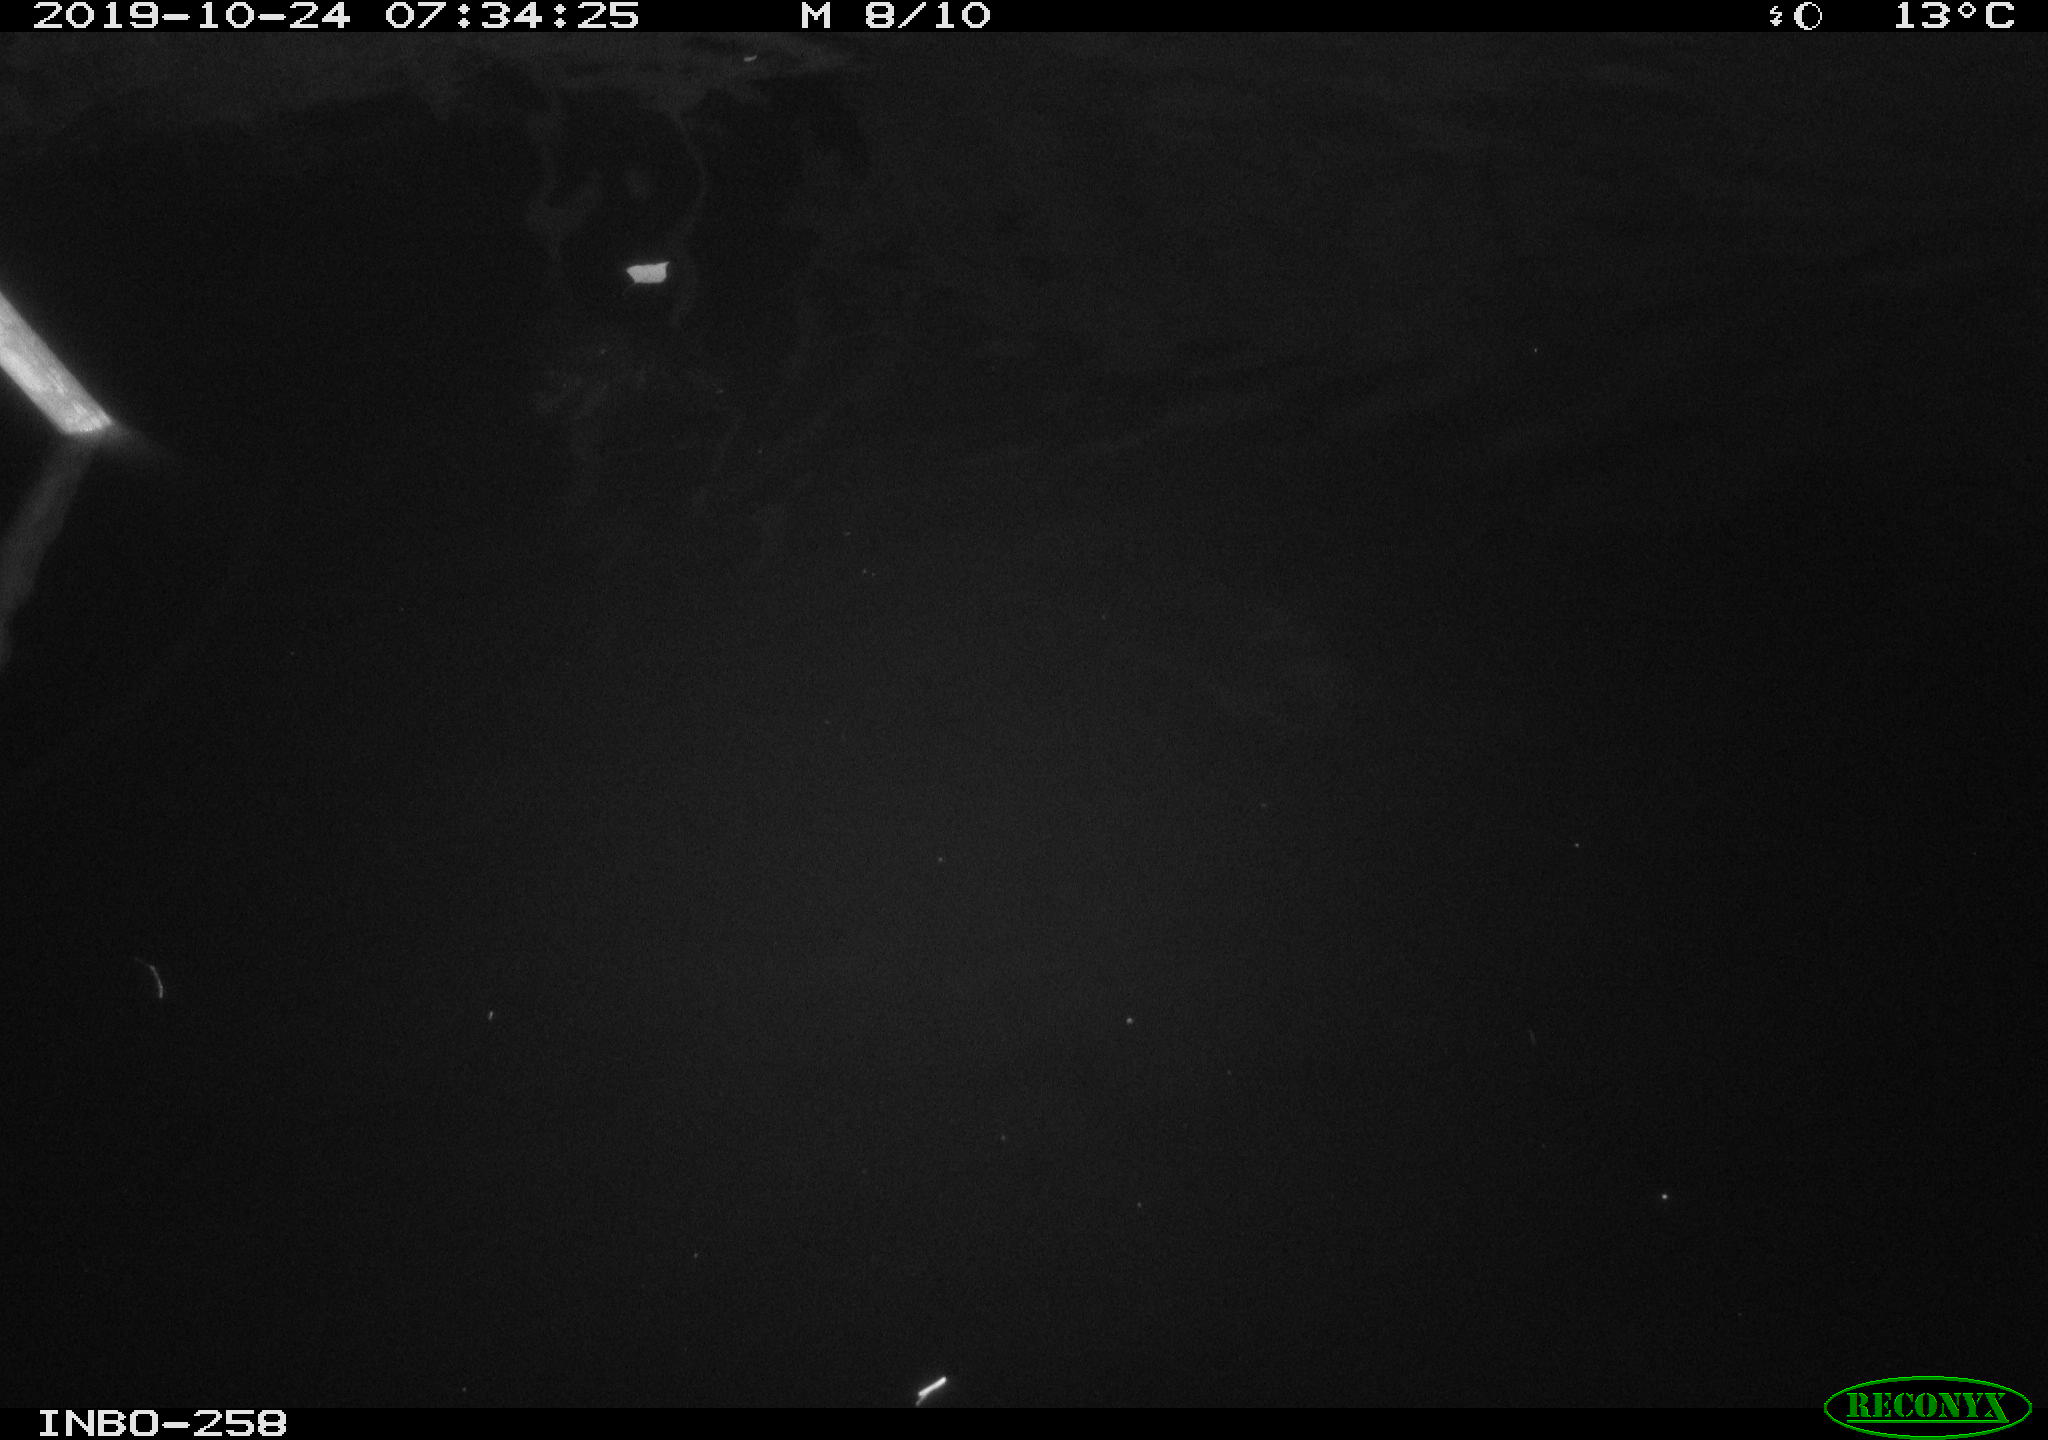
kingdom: Animalia
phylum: Chordata
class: Aves
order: Anseriformes
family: Anatidae
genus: Anas
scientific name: Anas platyrhynchos
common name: Mallard
